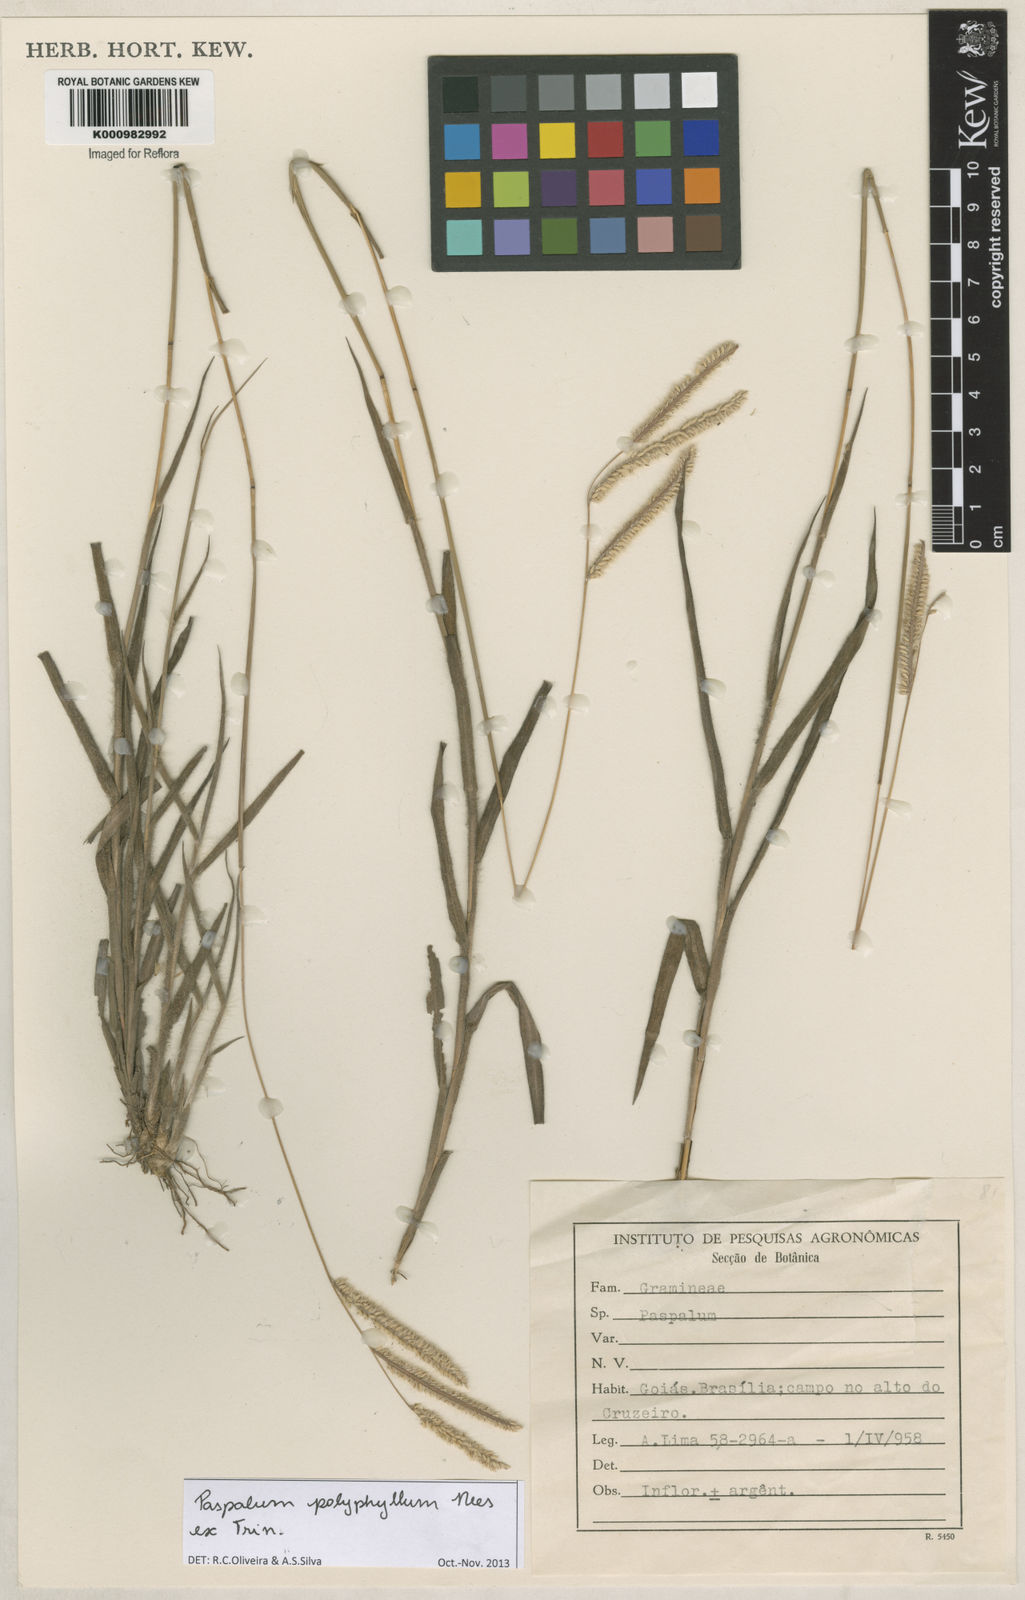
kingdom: Plantae
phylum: Tracheophyta
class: Liliopsida
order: Poales
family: Poaceae
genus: Paspalum
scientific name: Paspalum
